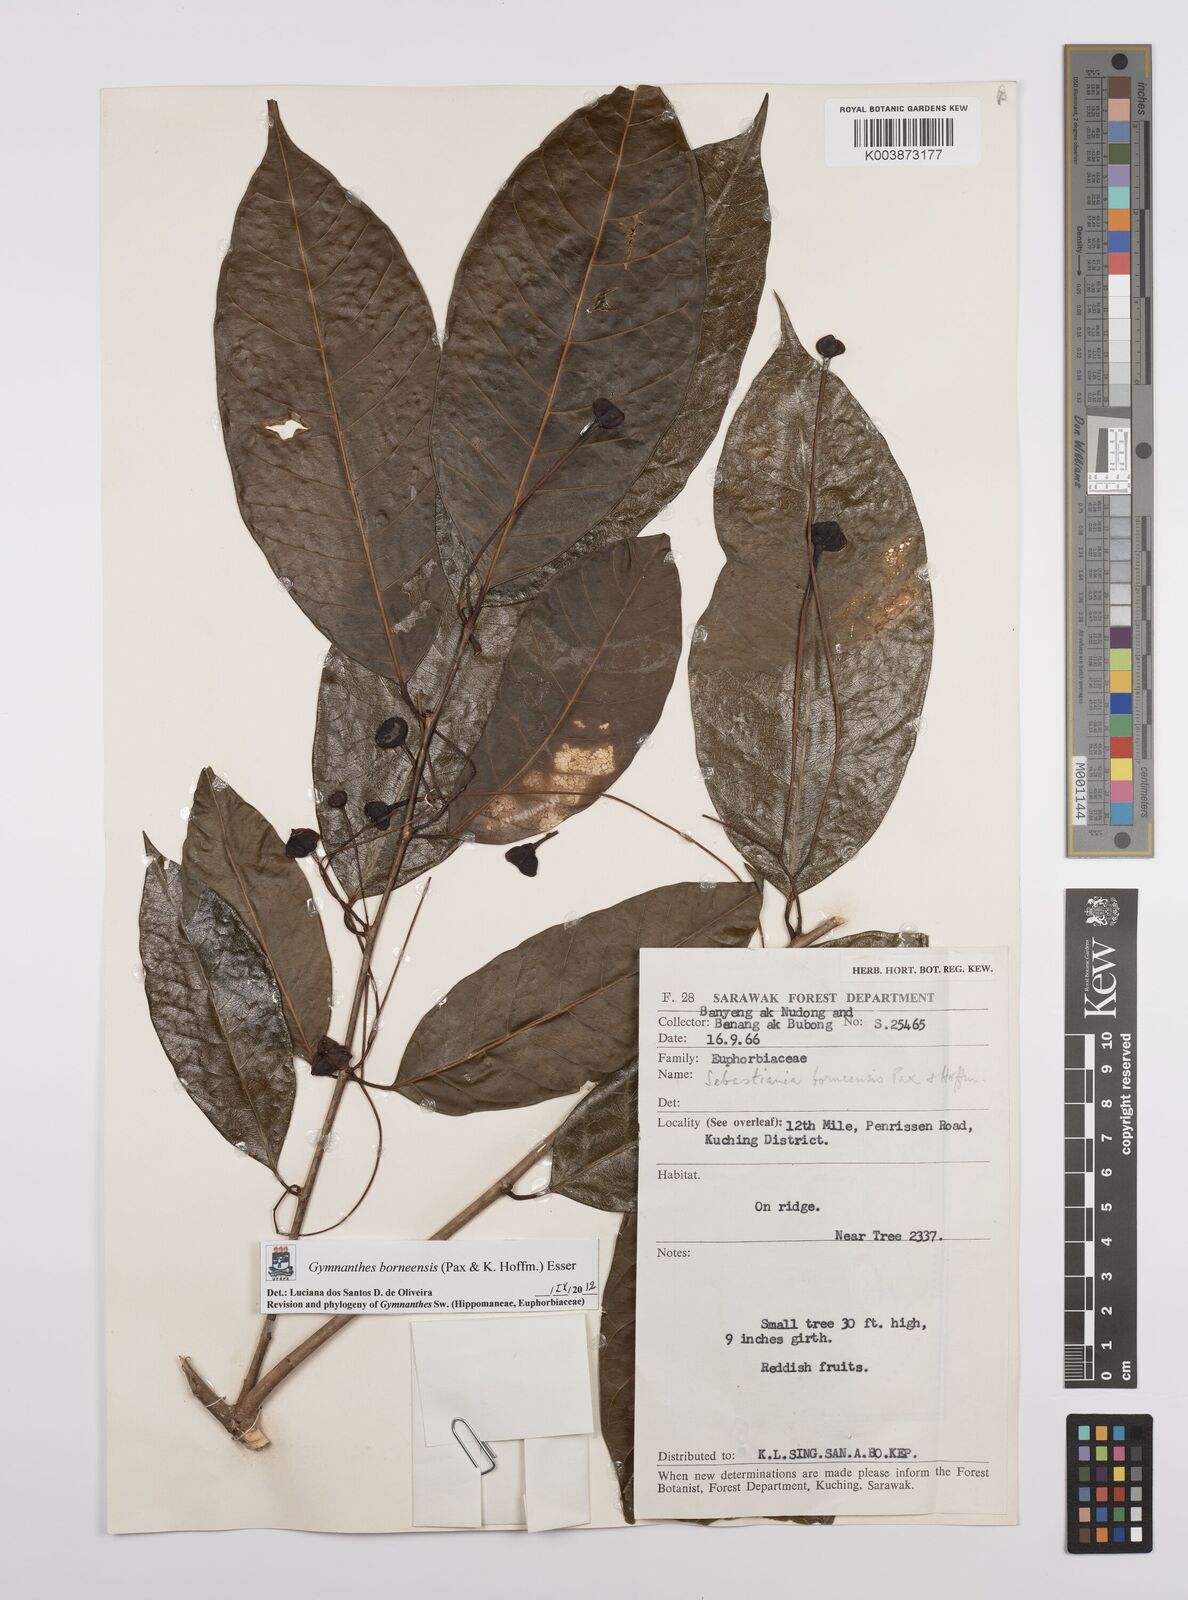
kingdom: Plantae
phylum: Tracheophyta
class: Magnoliopsida
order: Malpighiales
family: Euphorbiaceae
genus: Gymnanthes
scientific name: Gymnanthes borneensis
